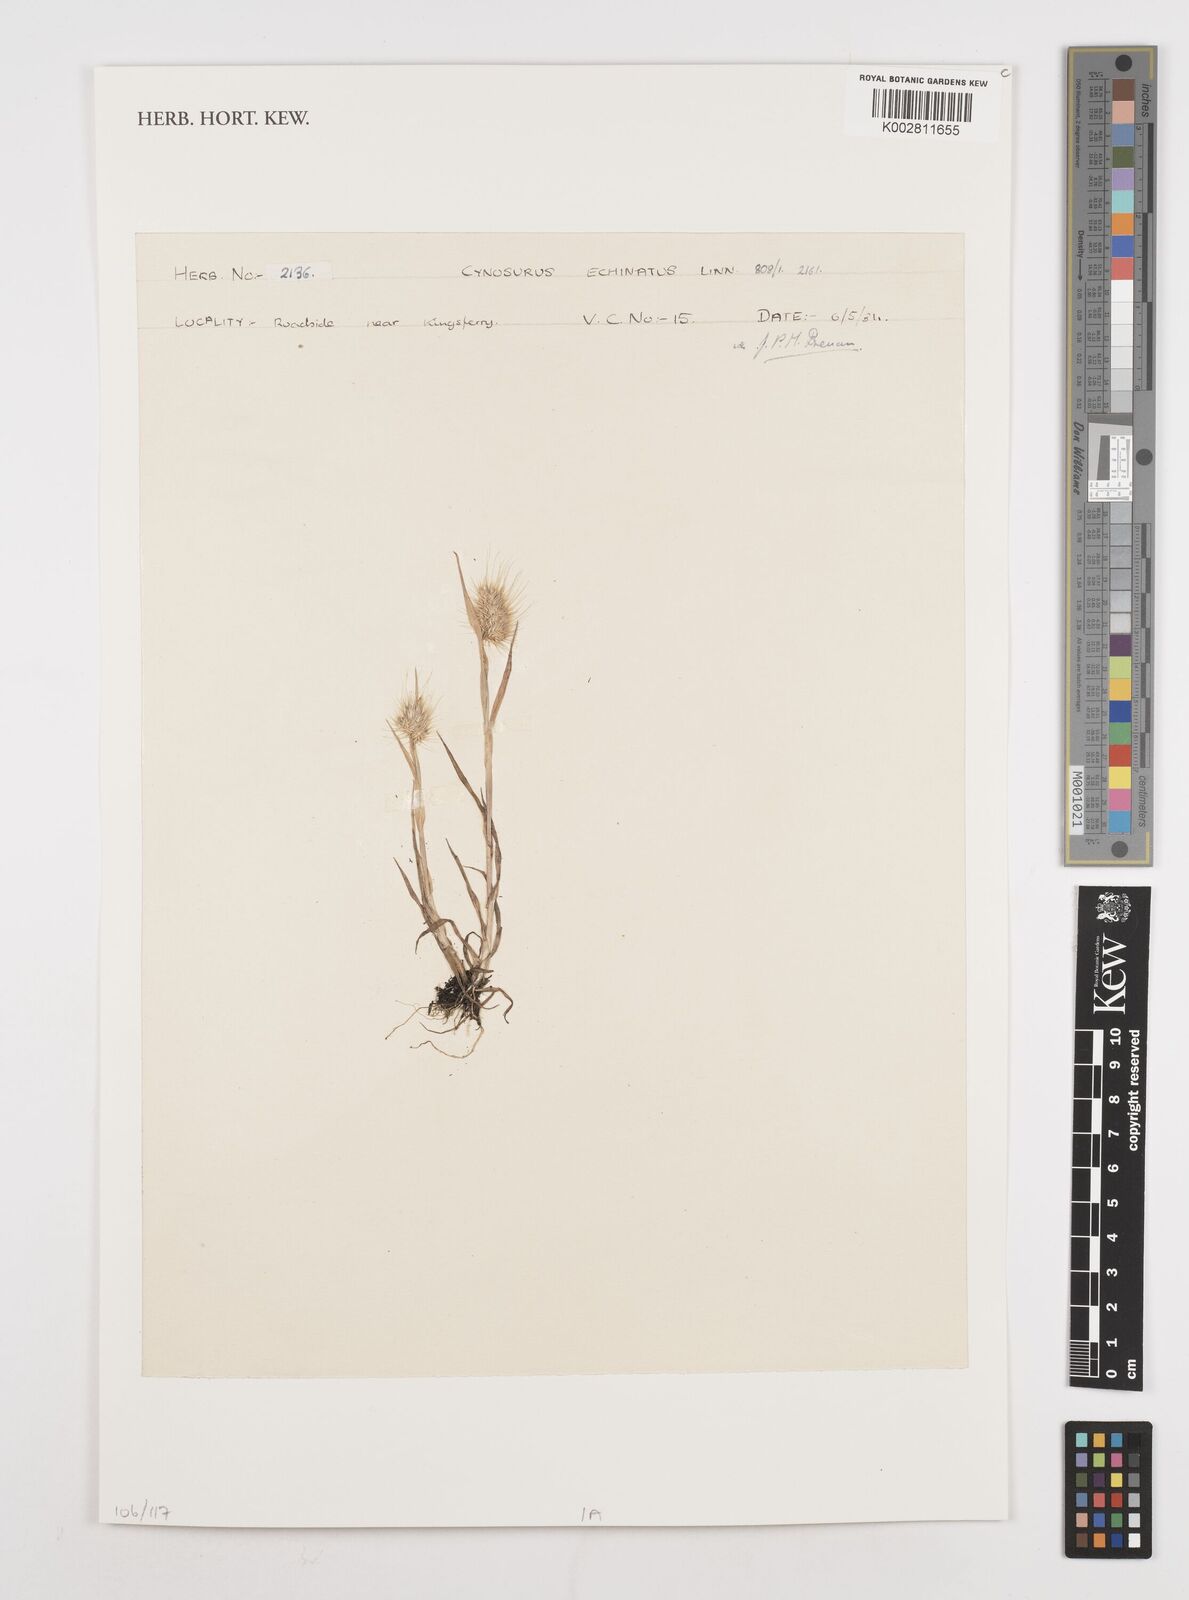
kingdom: Plantae
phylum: Tracheophyta
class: Liliopsida
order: Poales
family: Poaceae
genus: Cynosurus
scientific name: Cynosurus echinatus
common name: Rough dog's-tail
